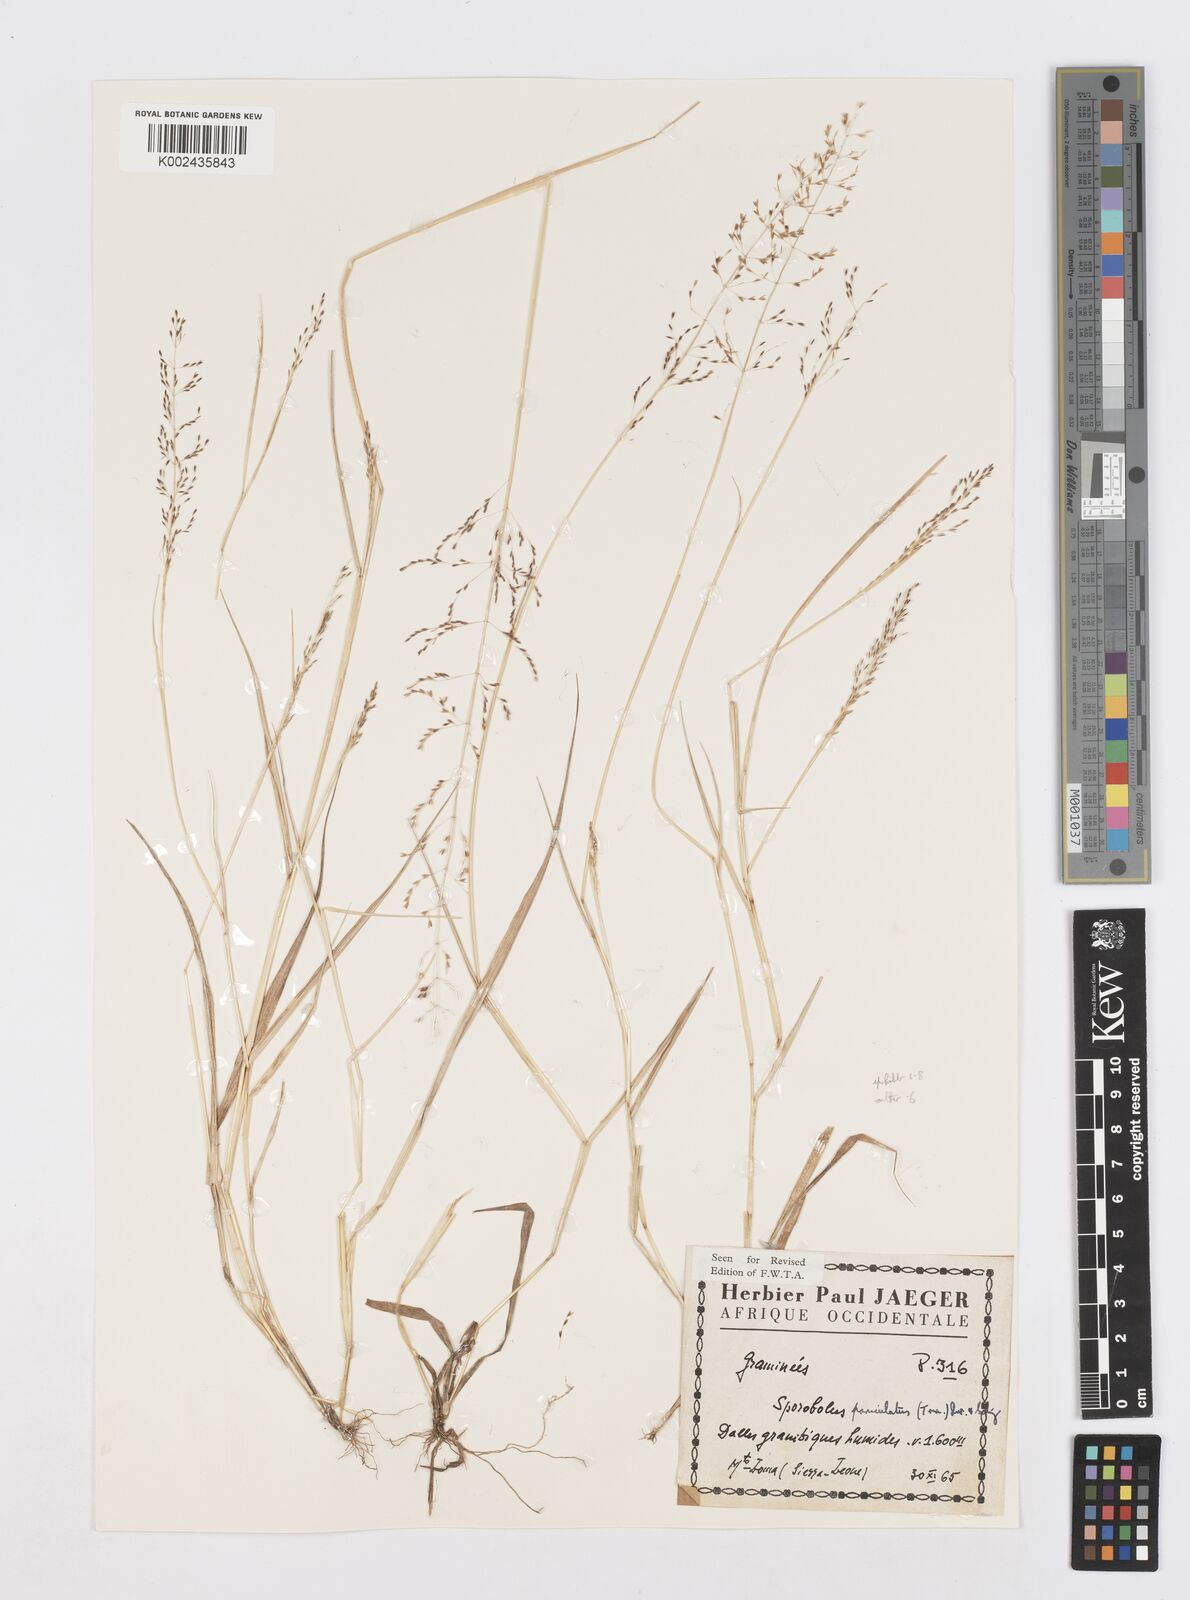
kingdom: Plantae
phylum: Tracheophyta
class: Liliopsida
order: Poales
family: Poaceae
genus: Sporobolus
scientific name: Sporobolus paniculatus
